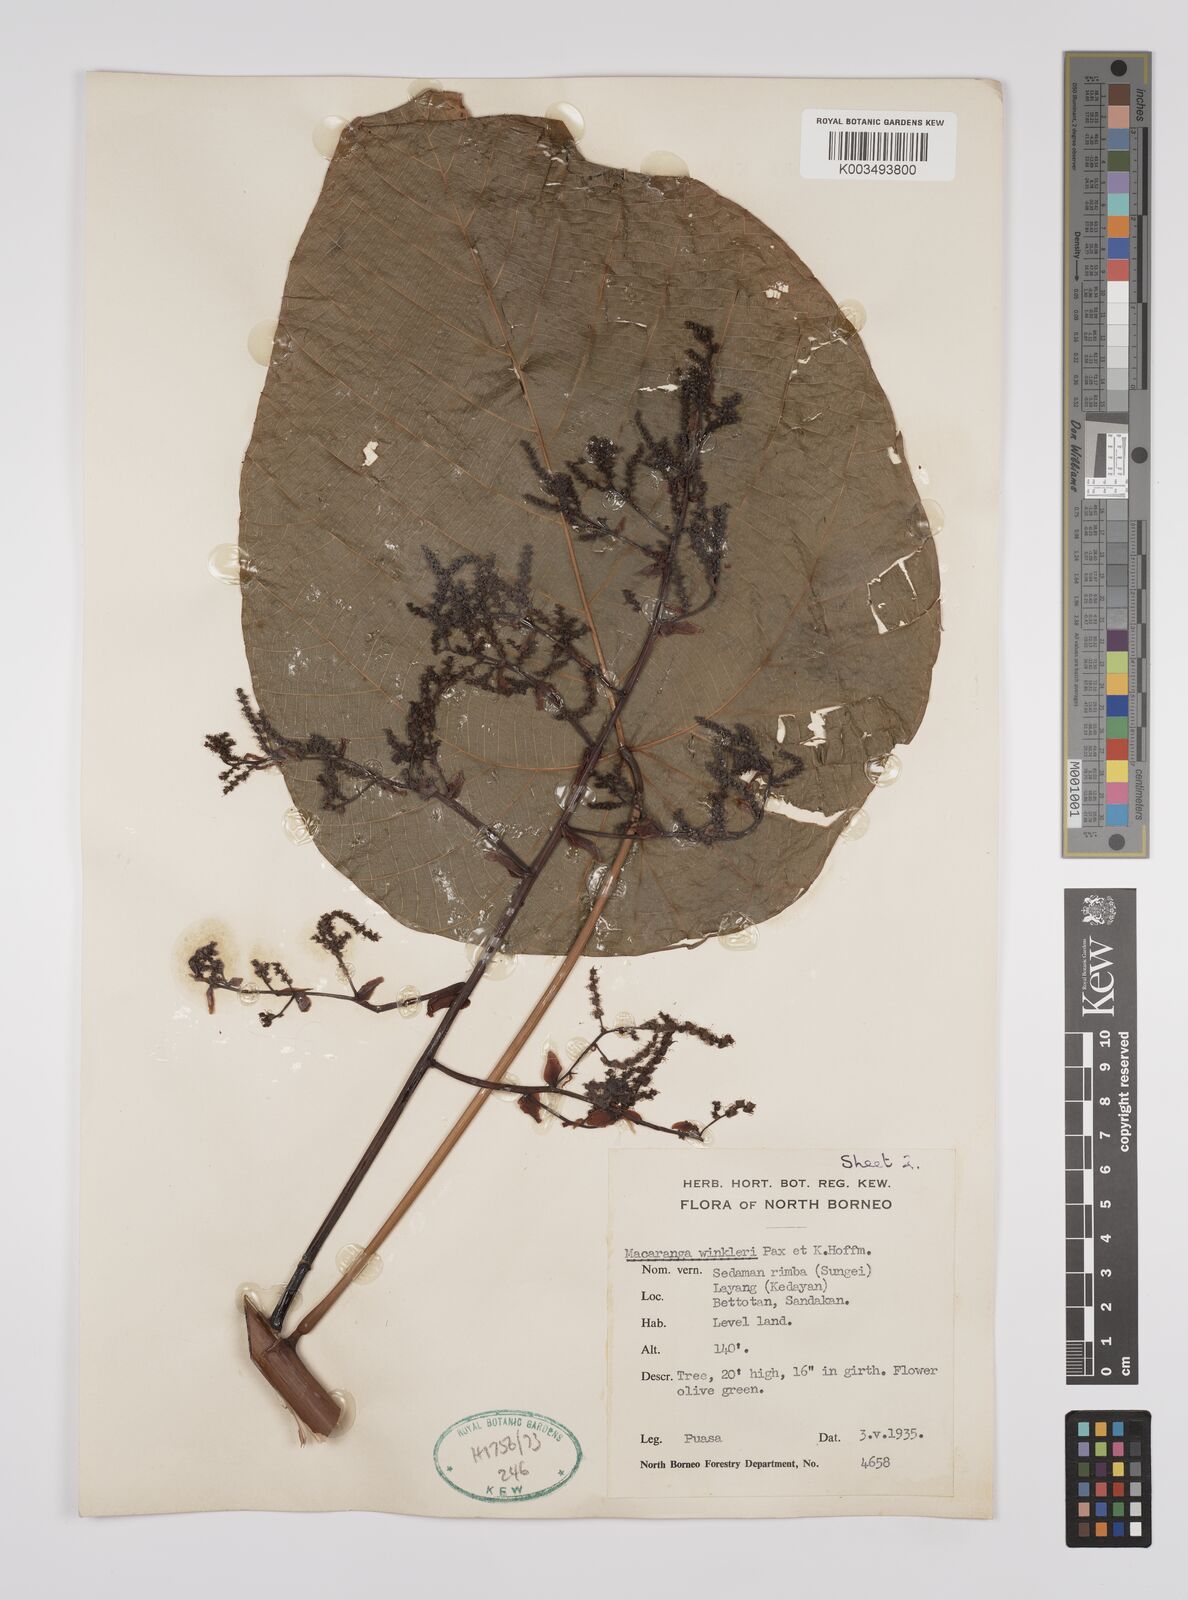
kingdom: Plantae
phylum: Tracheophyta
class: Magnoliopsida
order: Malpighiales
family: Euphorbiaceae
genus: Macaranga
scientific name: Macaranga winkleri
